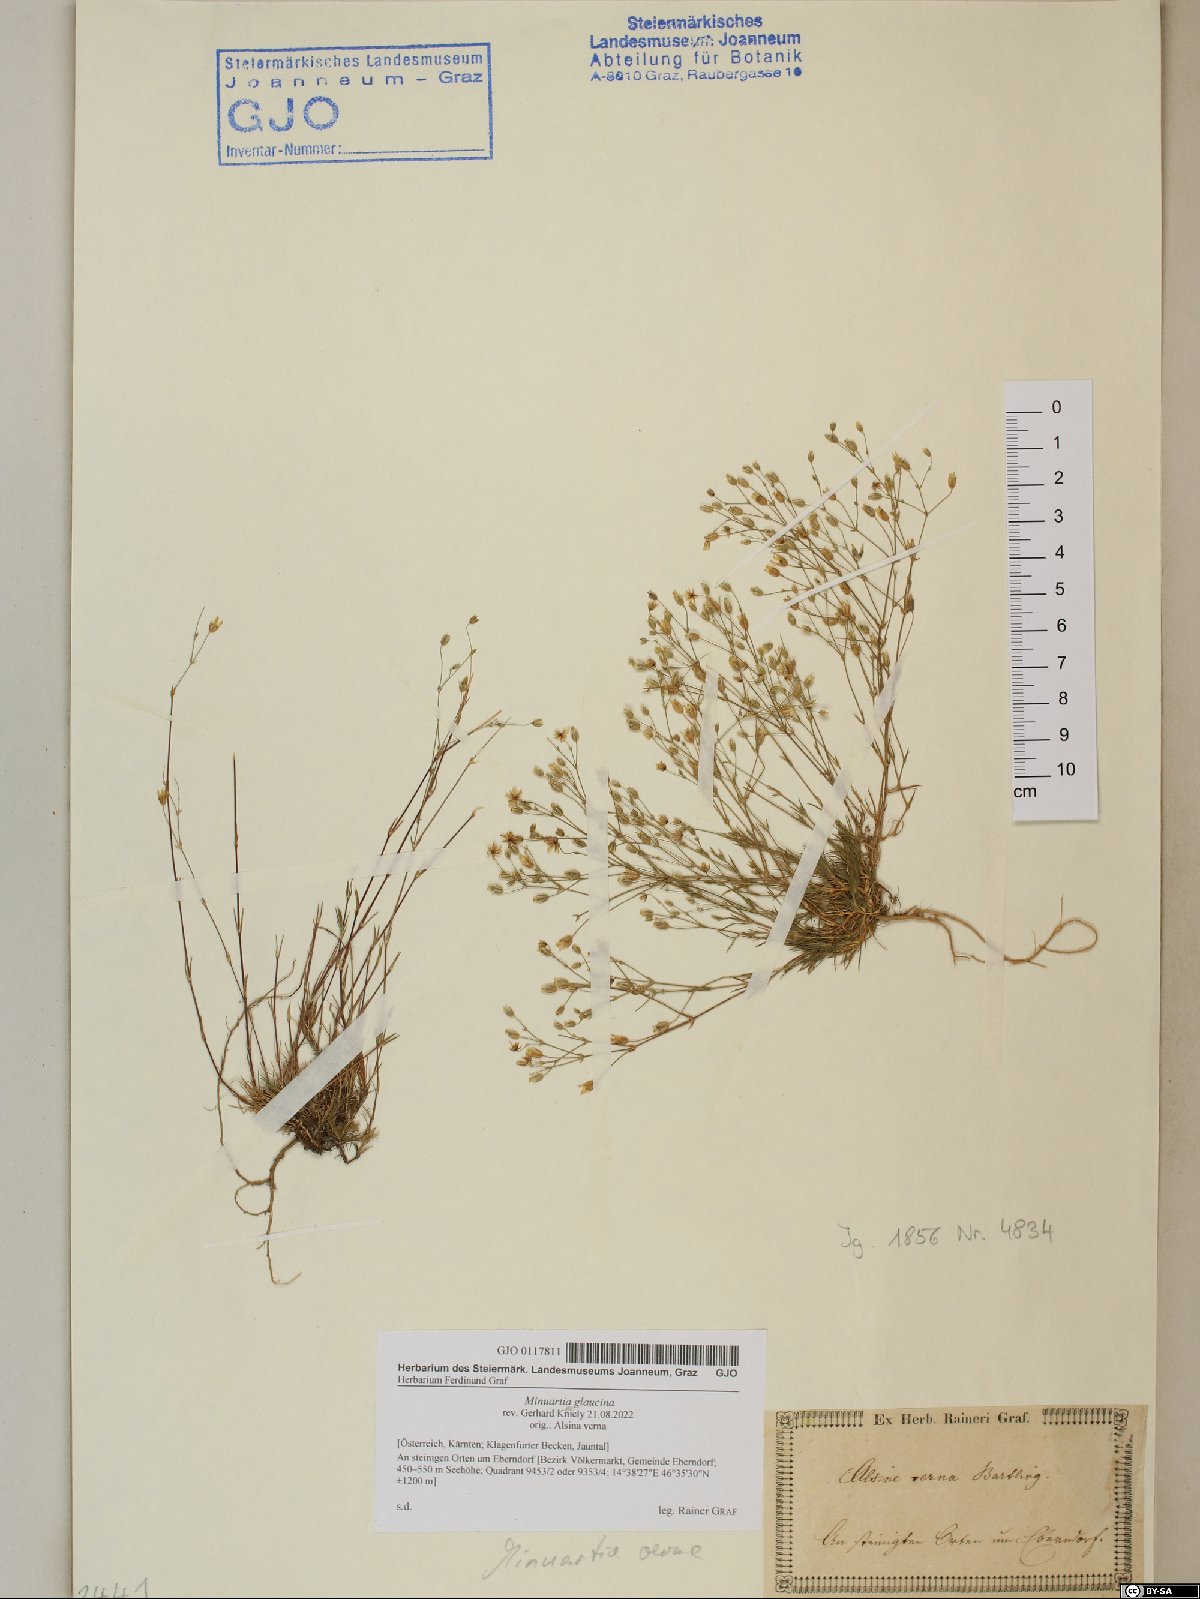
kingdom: Plantae
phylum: Tracheophyta
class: Magnoliopsida
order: Caryophyllales
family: Caryophyllaceae
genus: Sabulina
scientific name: Sabulina glaucina
